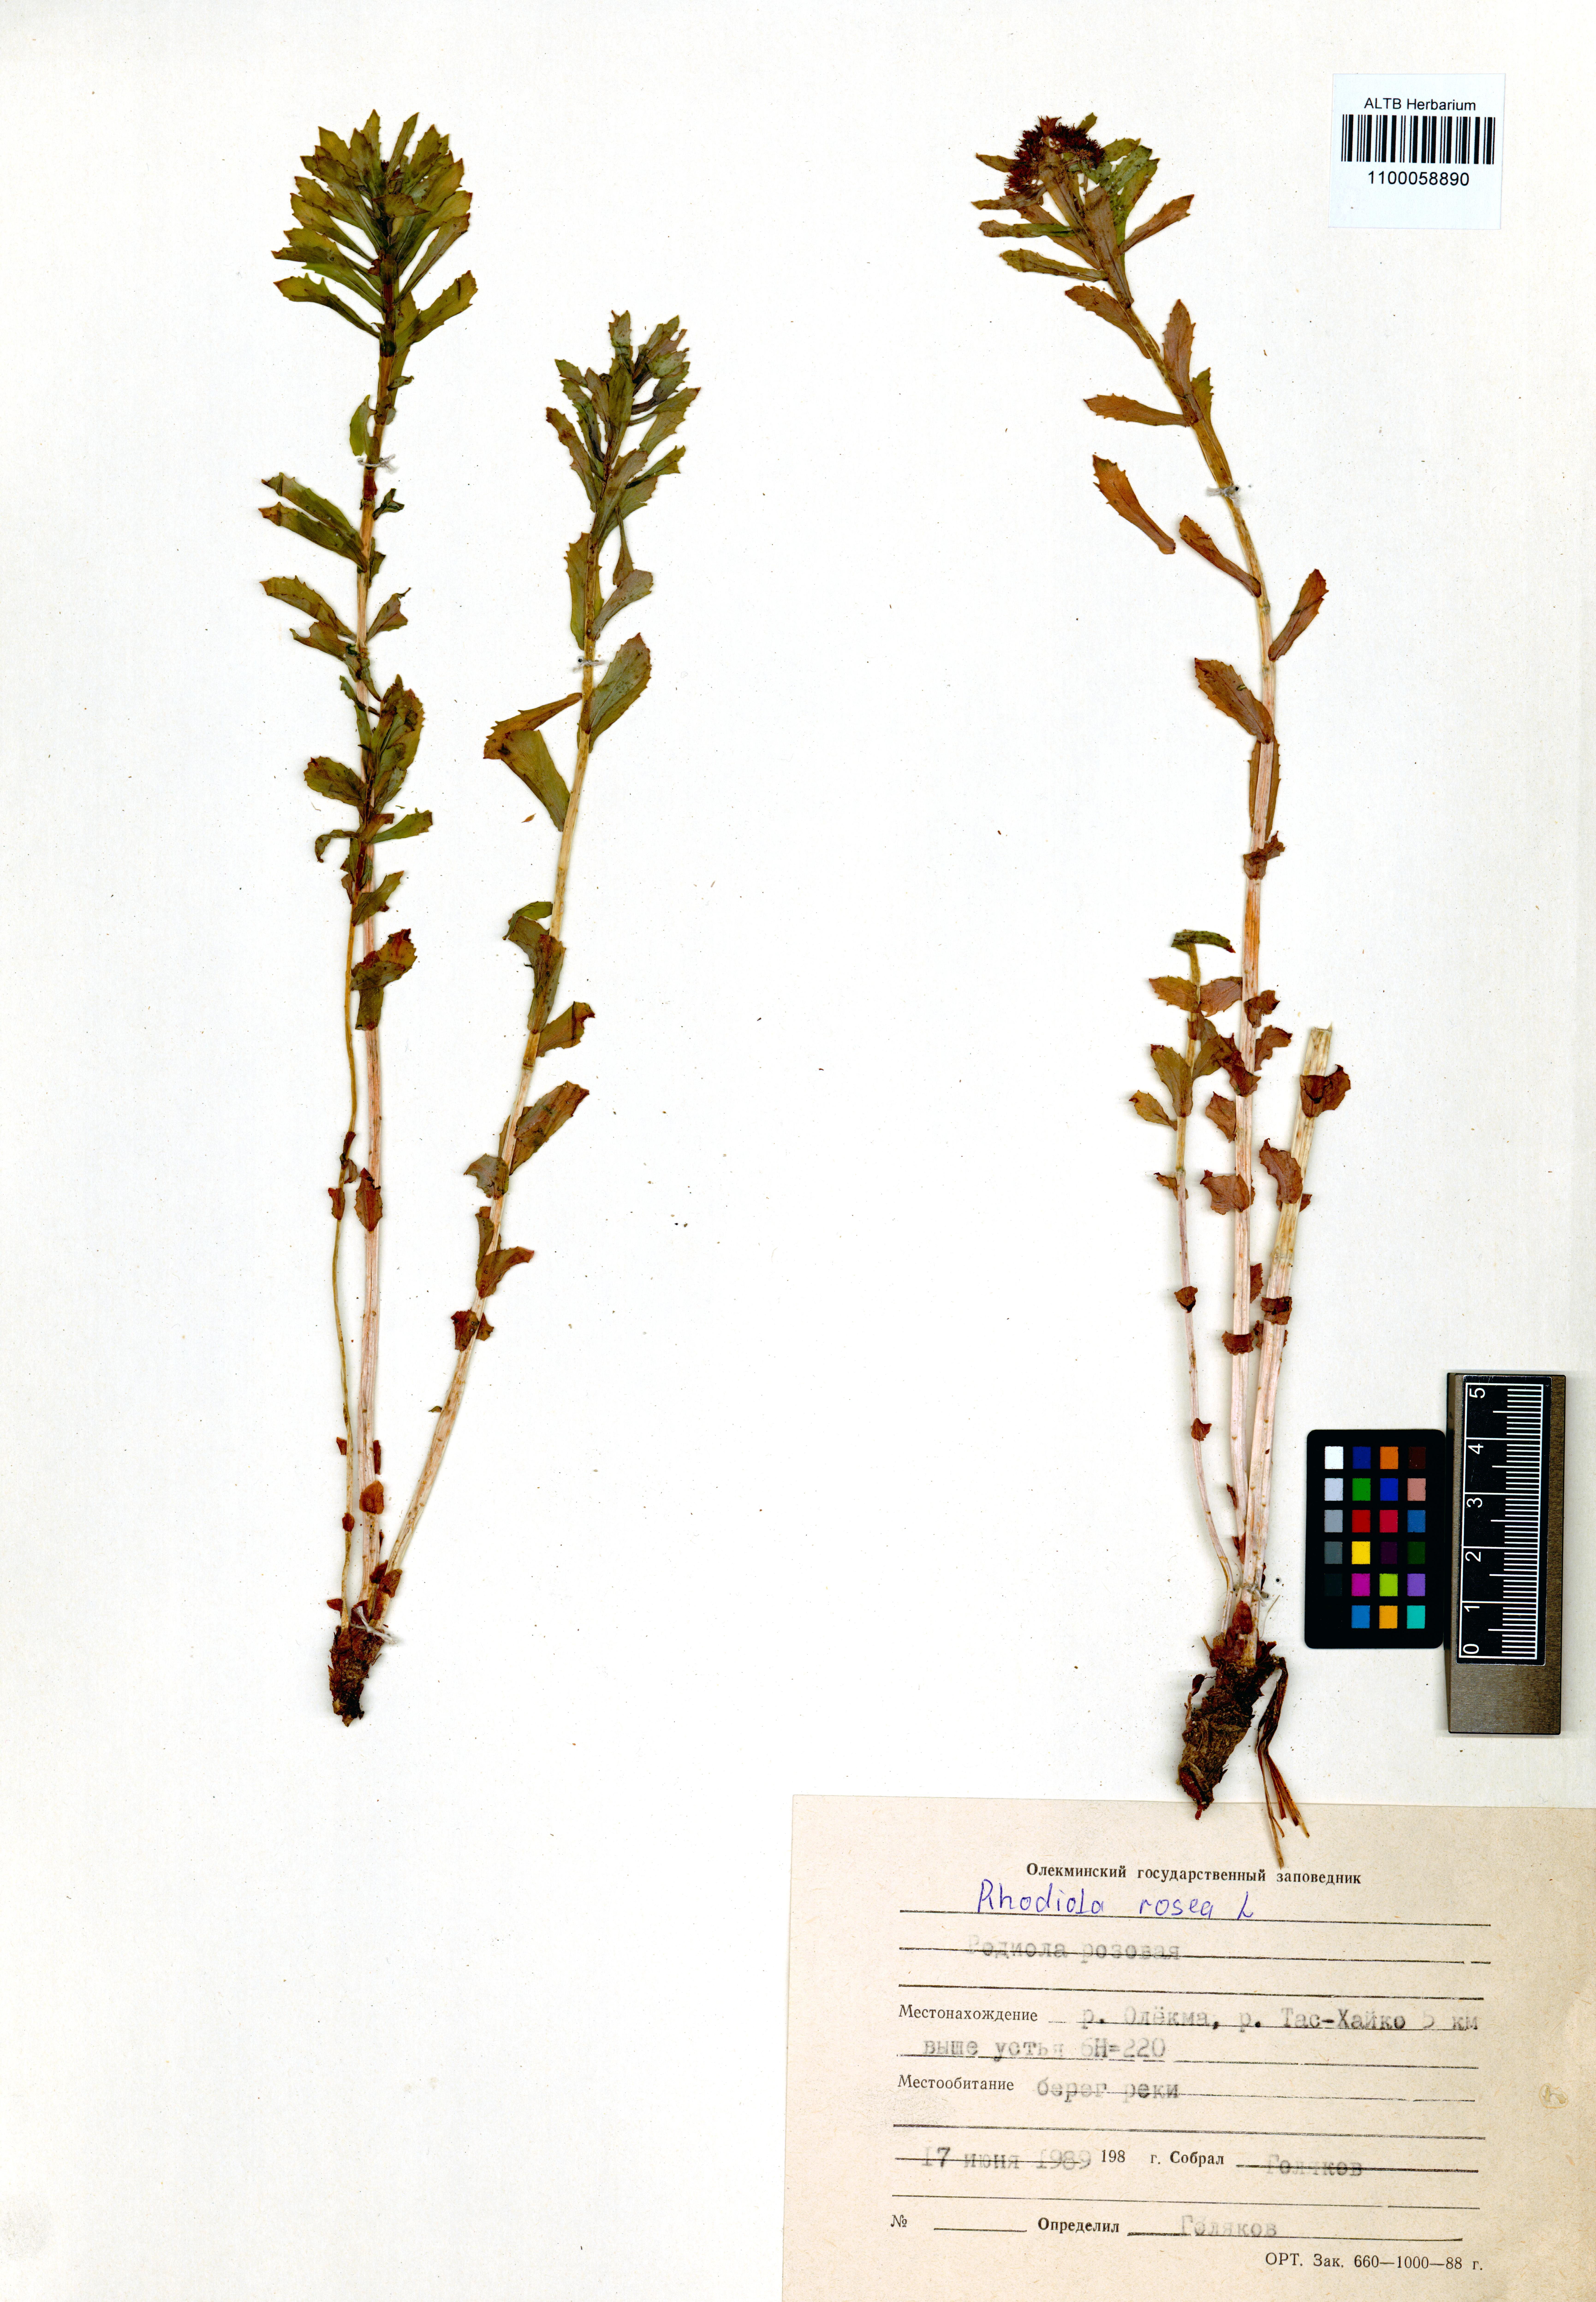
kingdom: Plantae
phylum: Tracheophyta
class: Magnoliopsida
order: Saxifragales
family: Crassulaceae
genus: Rhodiola
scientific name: Rhodiola rosea
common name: Roseroot
